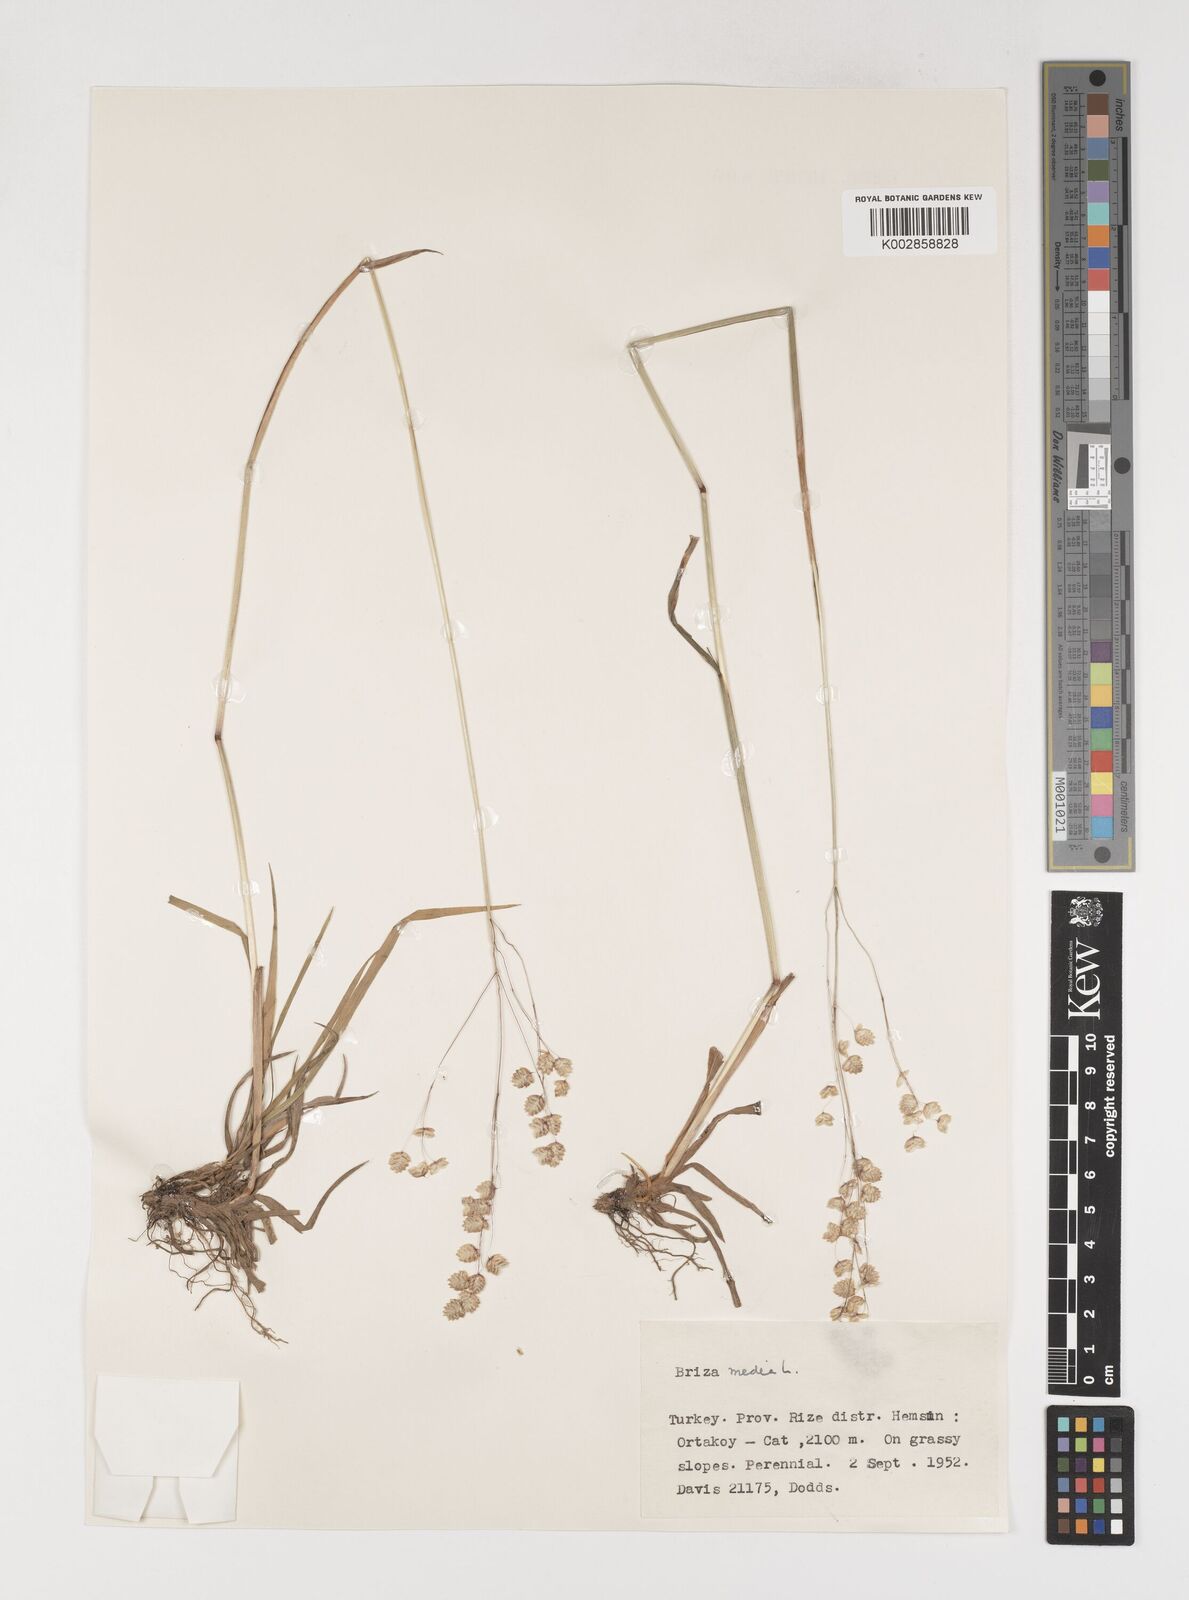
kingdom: Plantae
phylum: Tracheophyta
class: Liliopsida
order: Poales
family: Poaceae
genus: Briza
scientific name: Briza media
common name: Quaking grass
